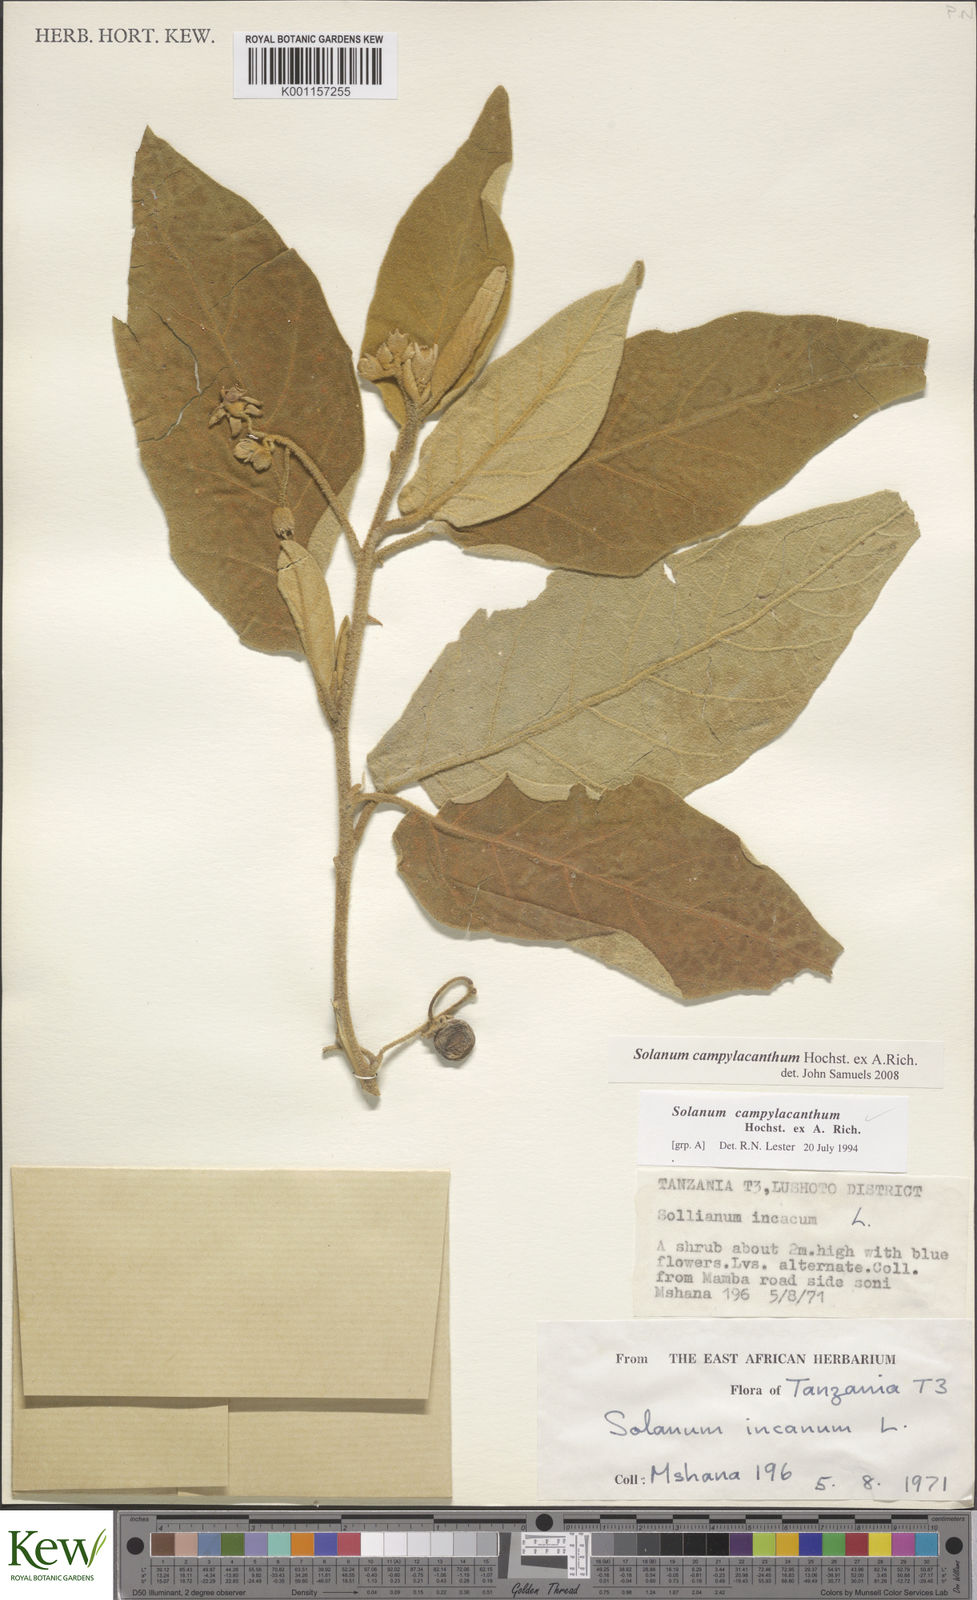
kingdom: Plantae
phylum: Tracheophyta
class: Magnoliopsida
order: Solanales
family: Solanaceae
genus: Solanum
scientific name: Solanum campylacanthum
